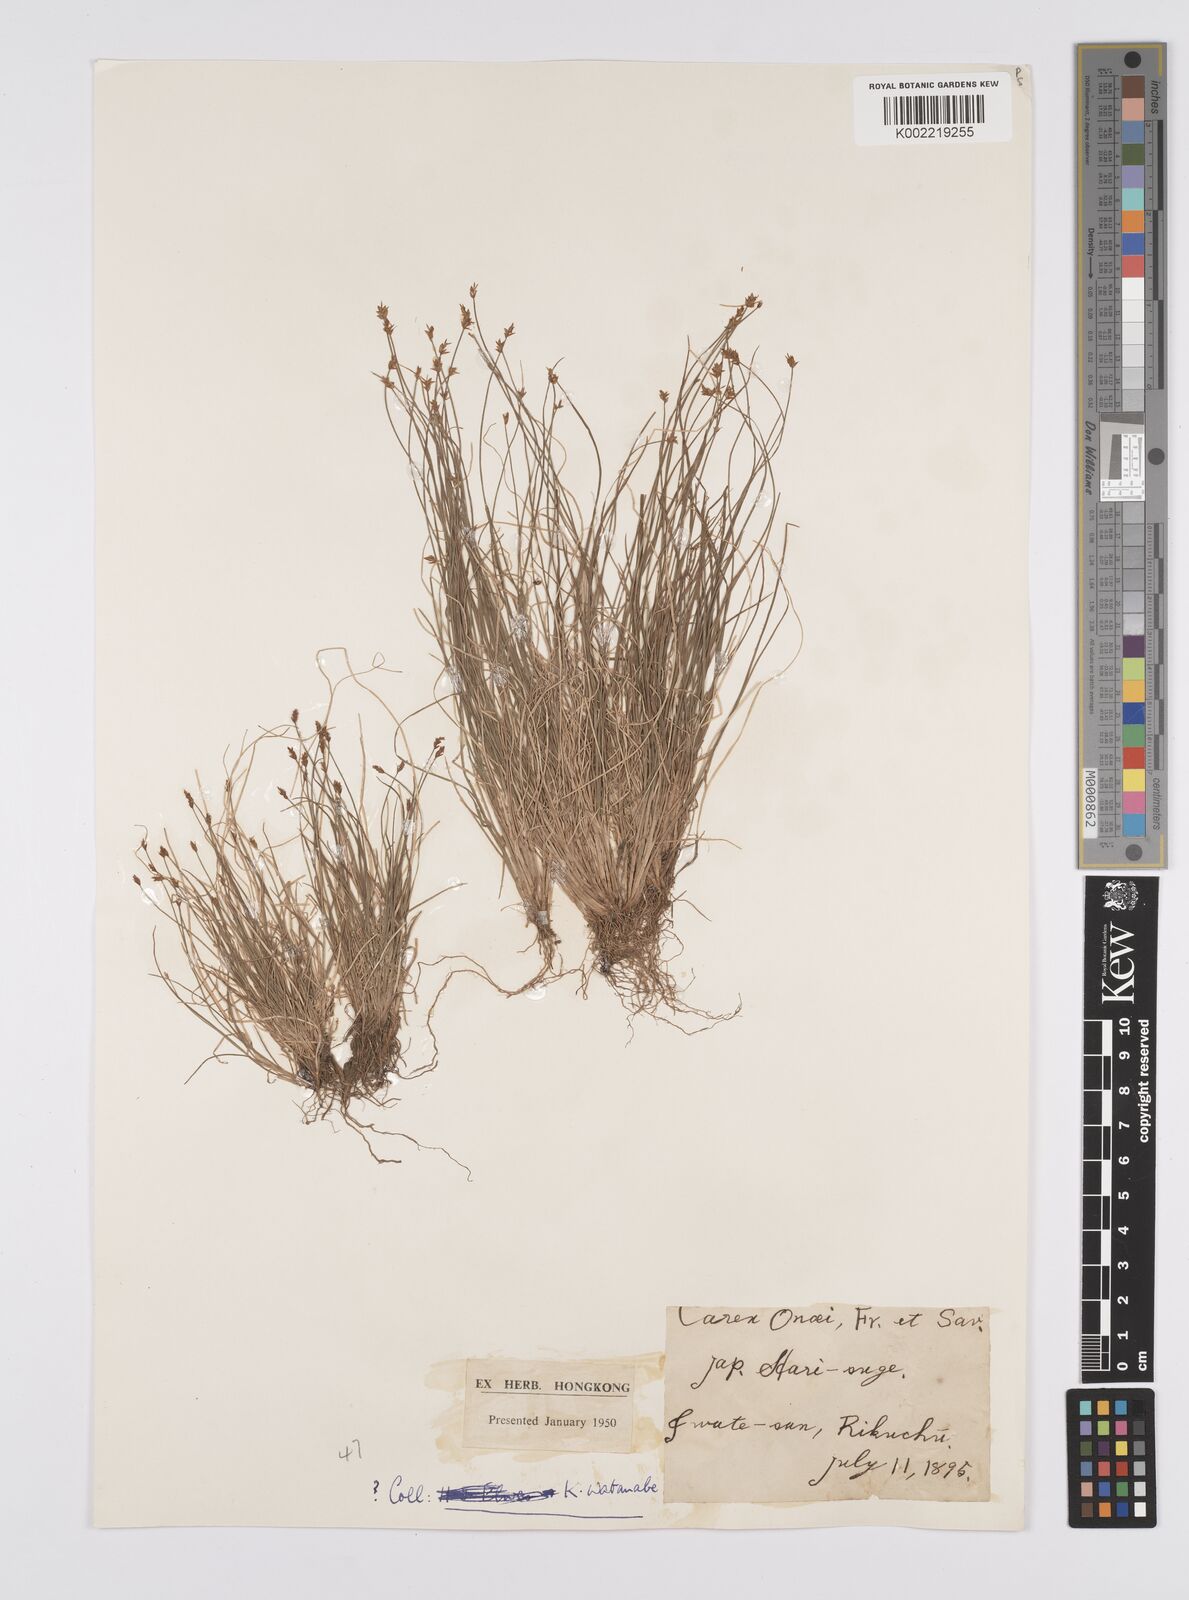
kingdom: Plantae
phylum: Tracheophyta
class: Liliopsida
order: Poales
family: Cyperaceae
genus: Carex
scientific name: Carex onoei
